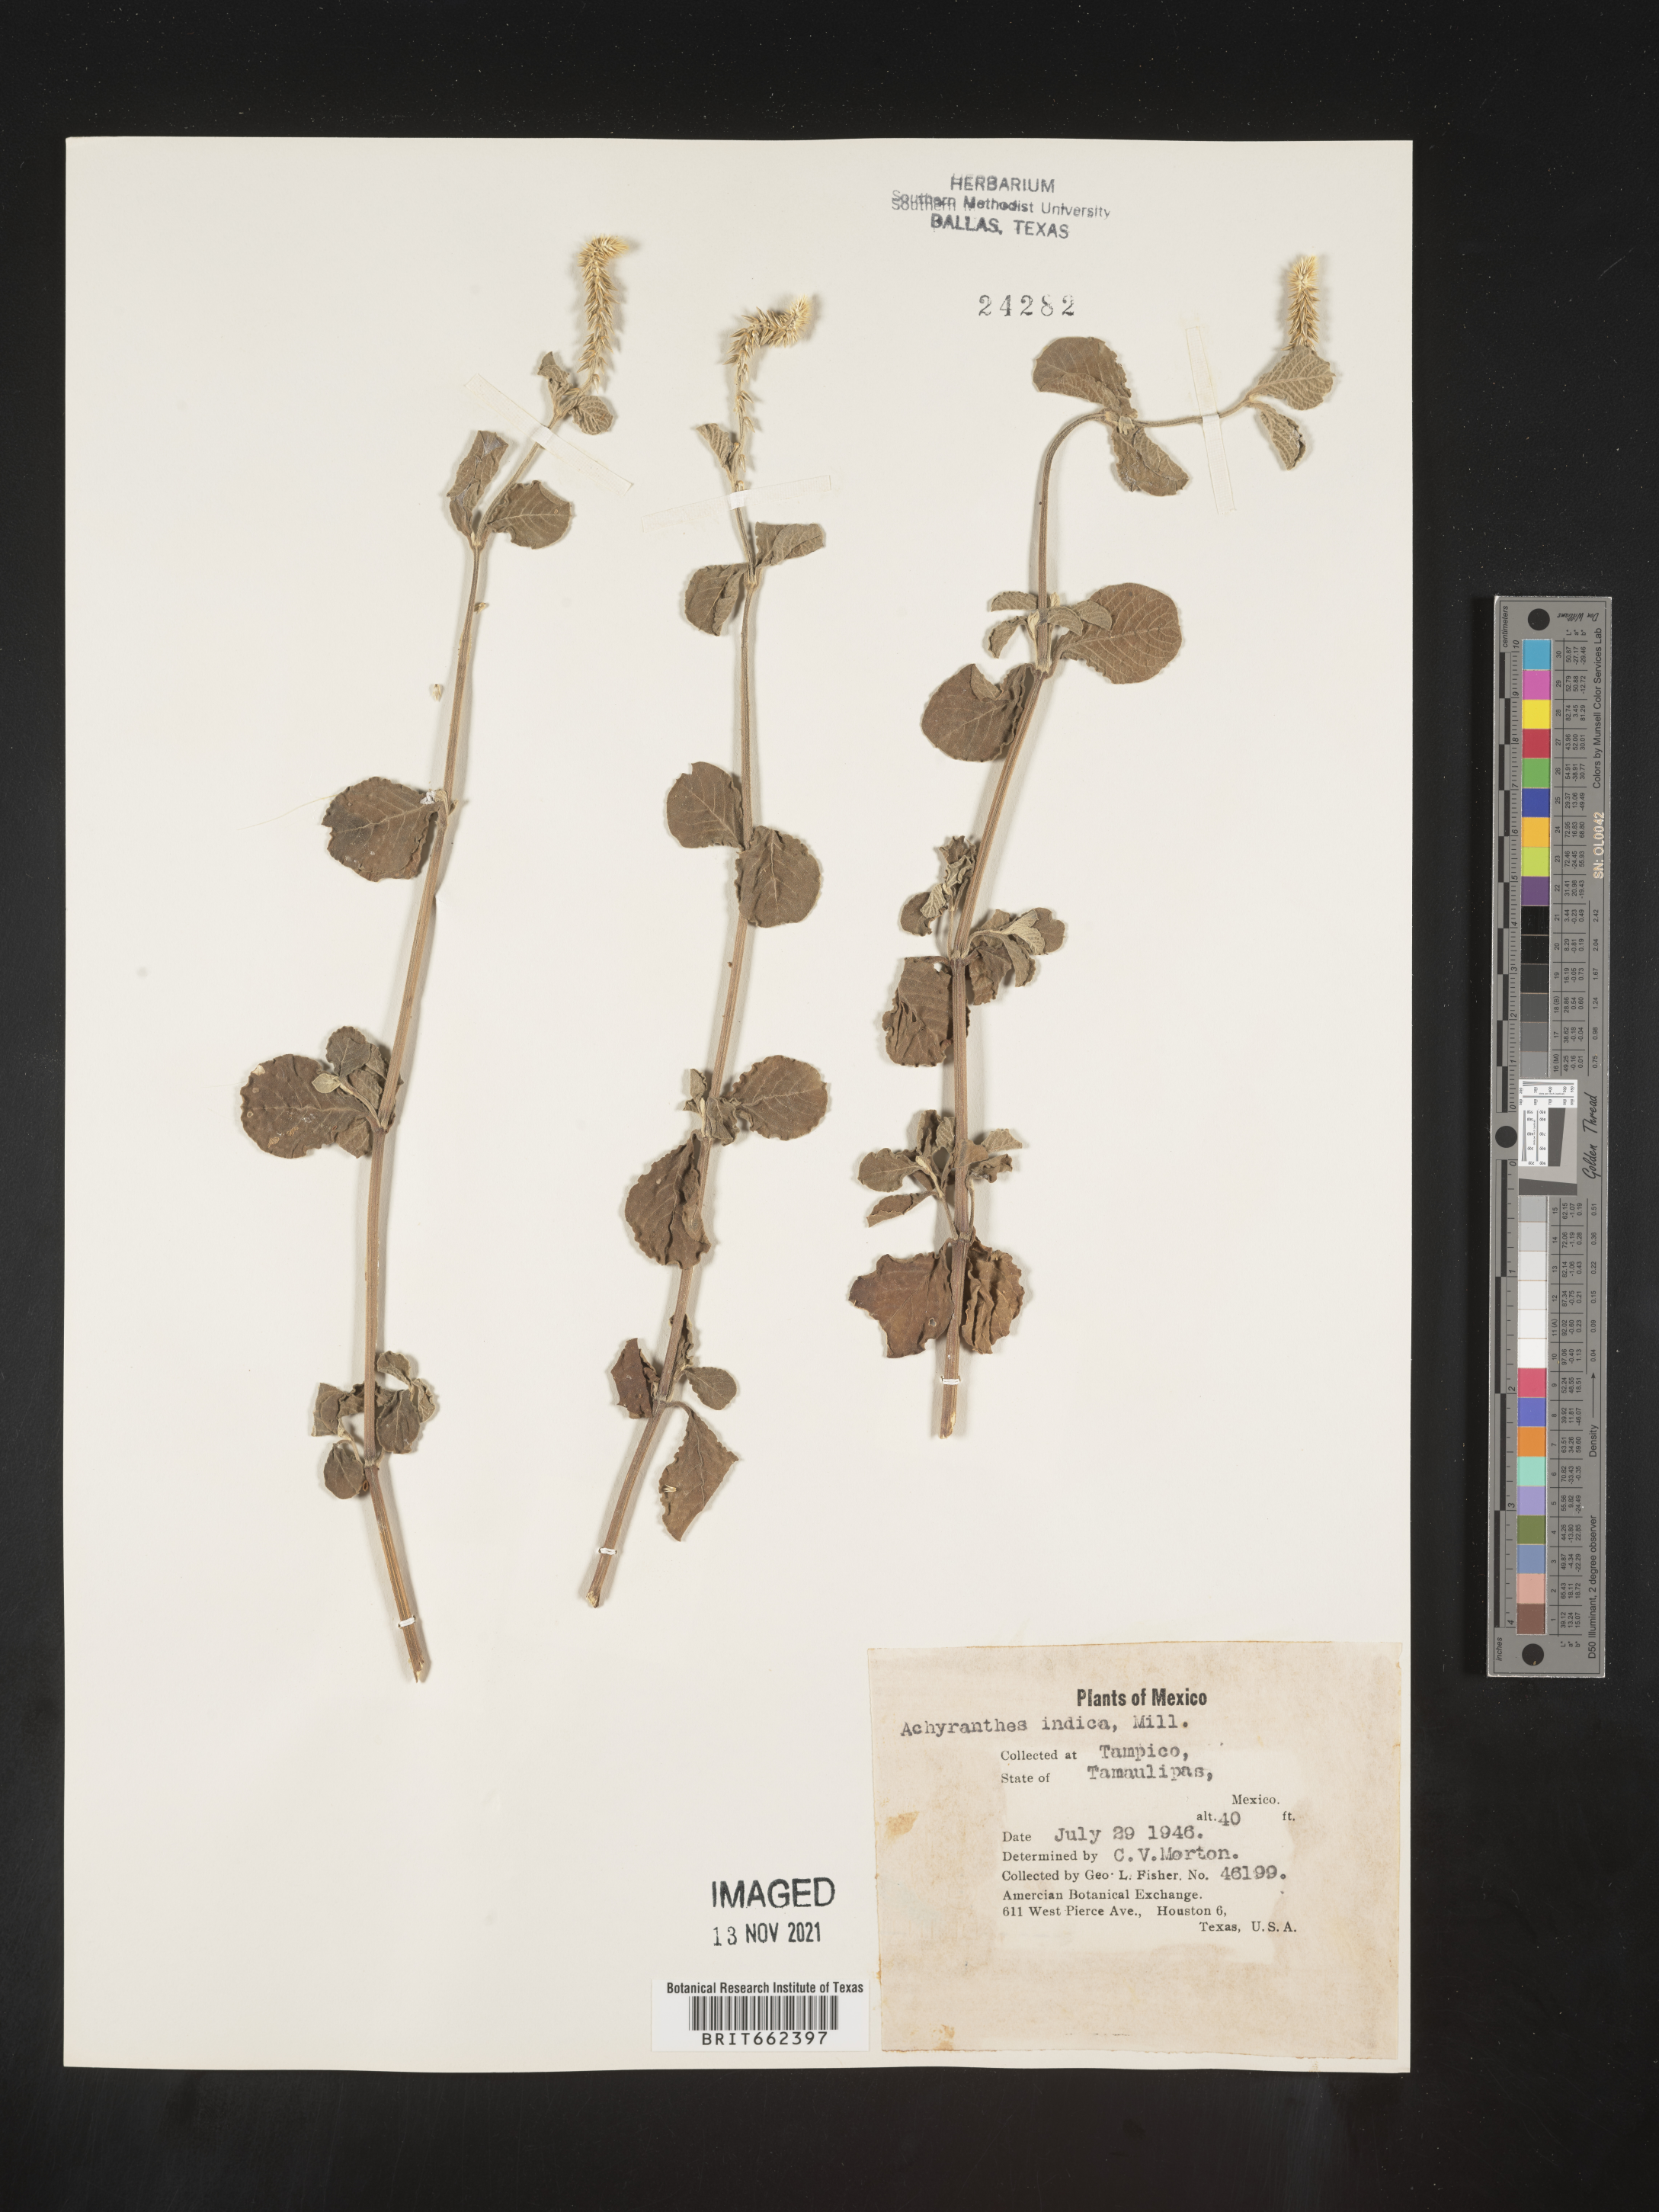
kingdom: Plantae
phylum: Tracheophyta
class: Magnoliopsida
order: Caryophyllales
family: Amaranthaceae
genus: Achyranthes
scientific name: Achyranthes
